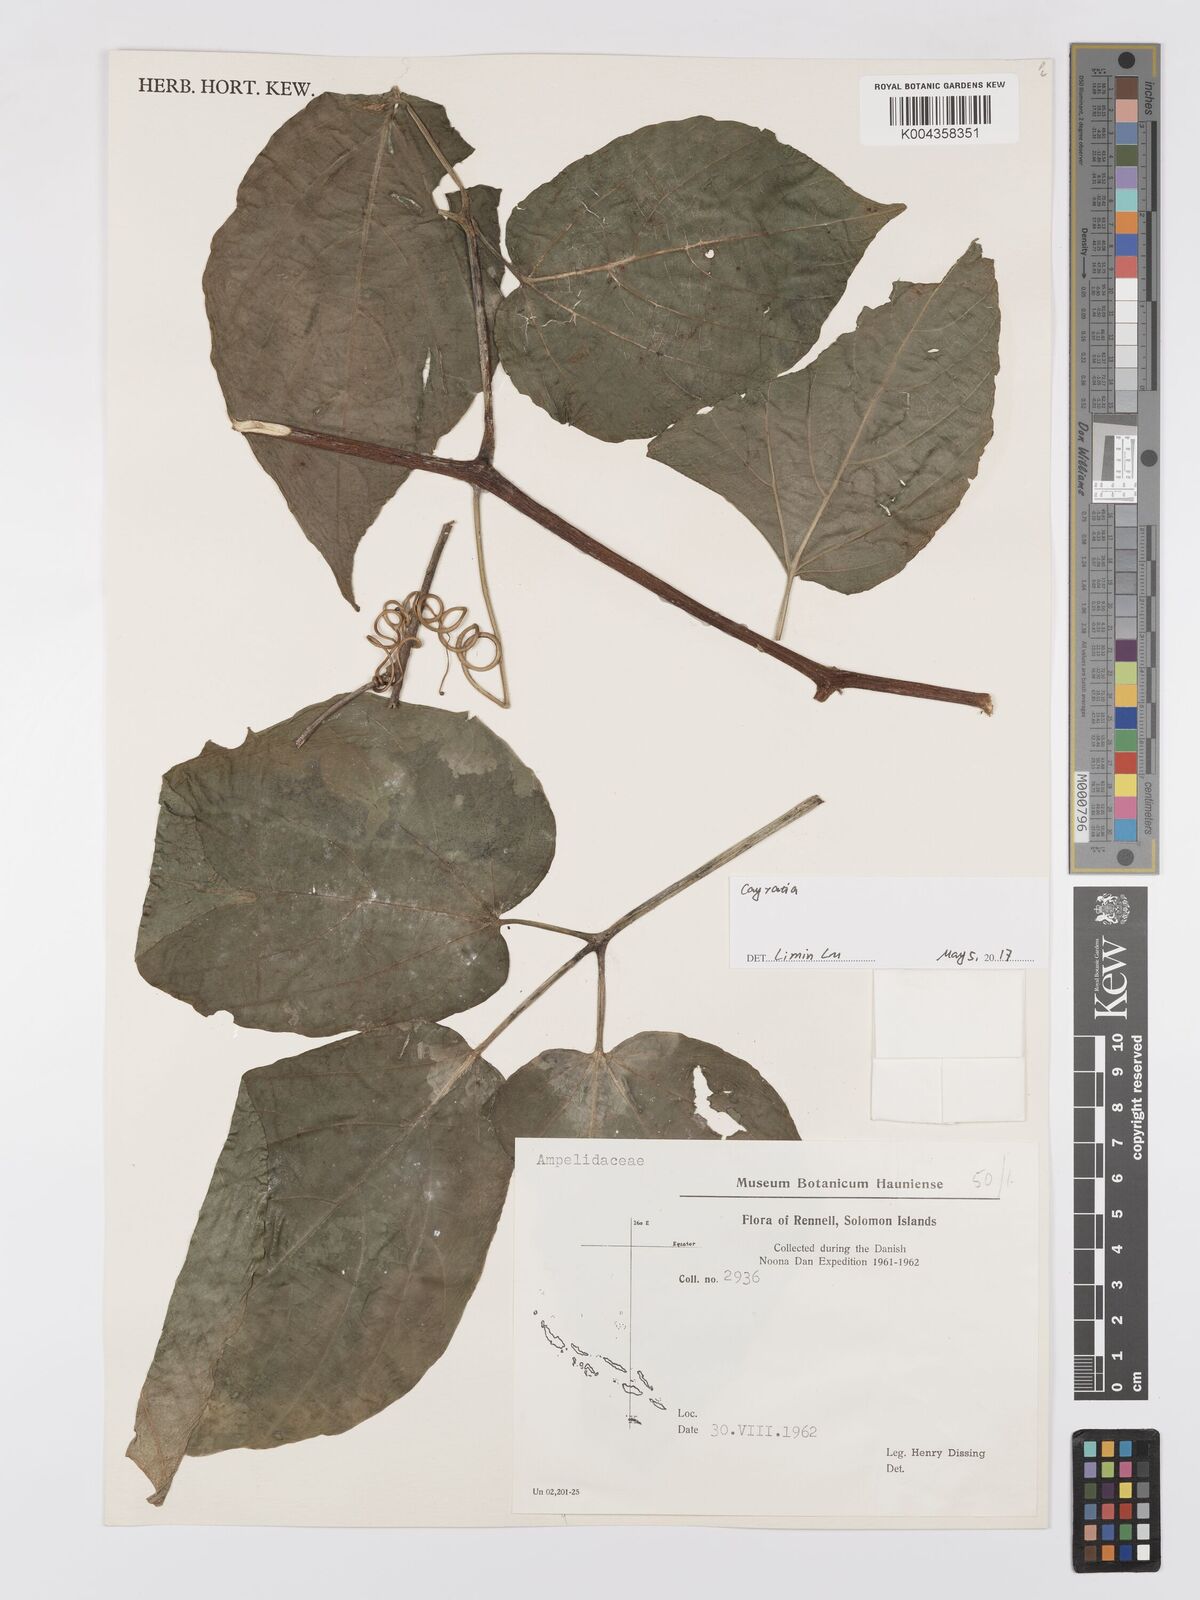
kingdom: Plantae
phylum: Tracheophyta
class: Magnoliopsida
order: Vitales
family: Vitaceae
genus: Cayratia
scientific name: Cayratia
